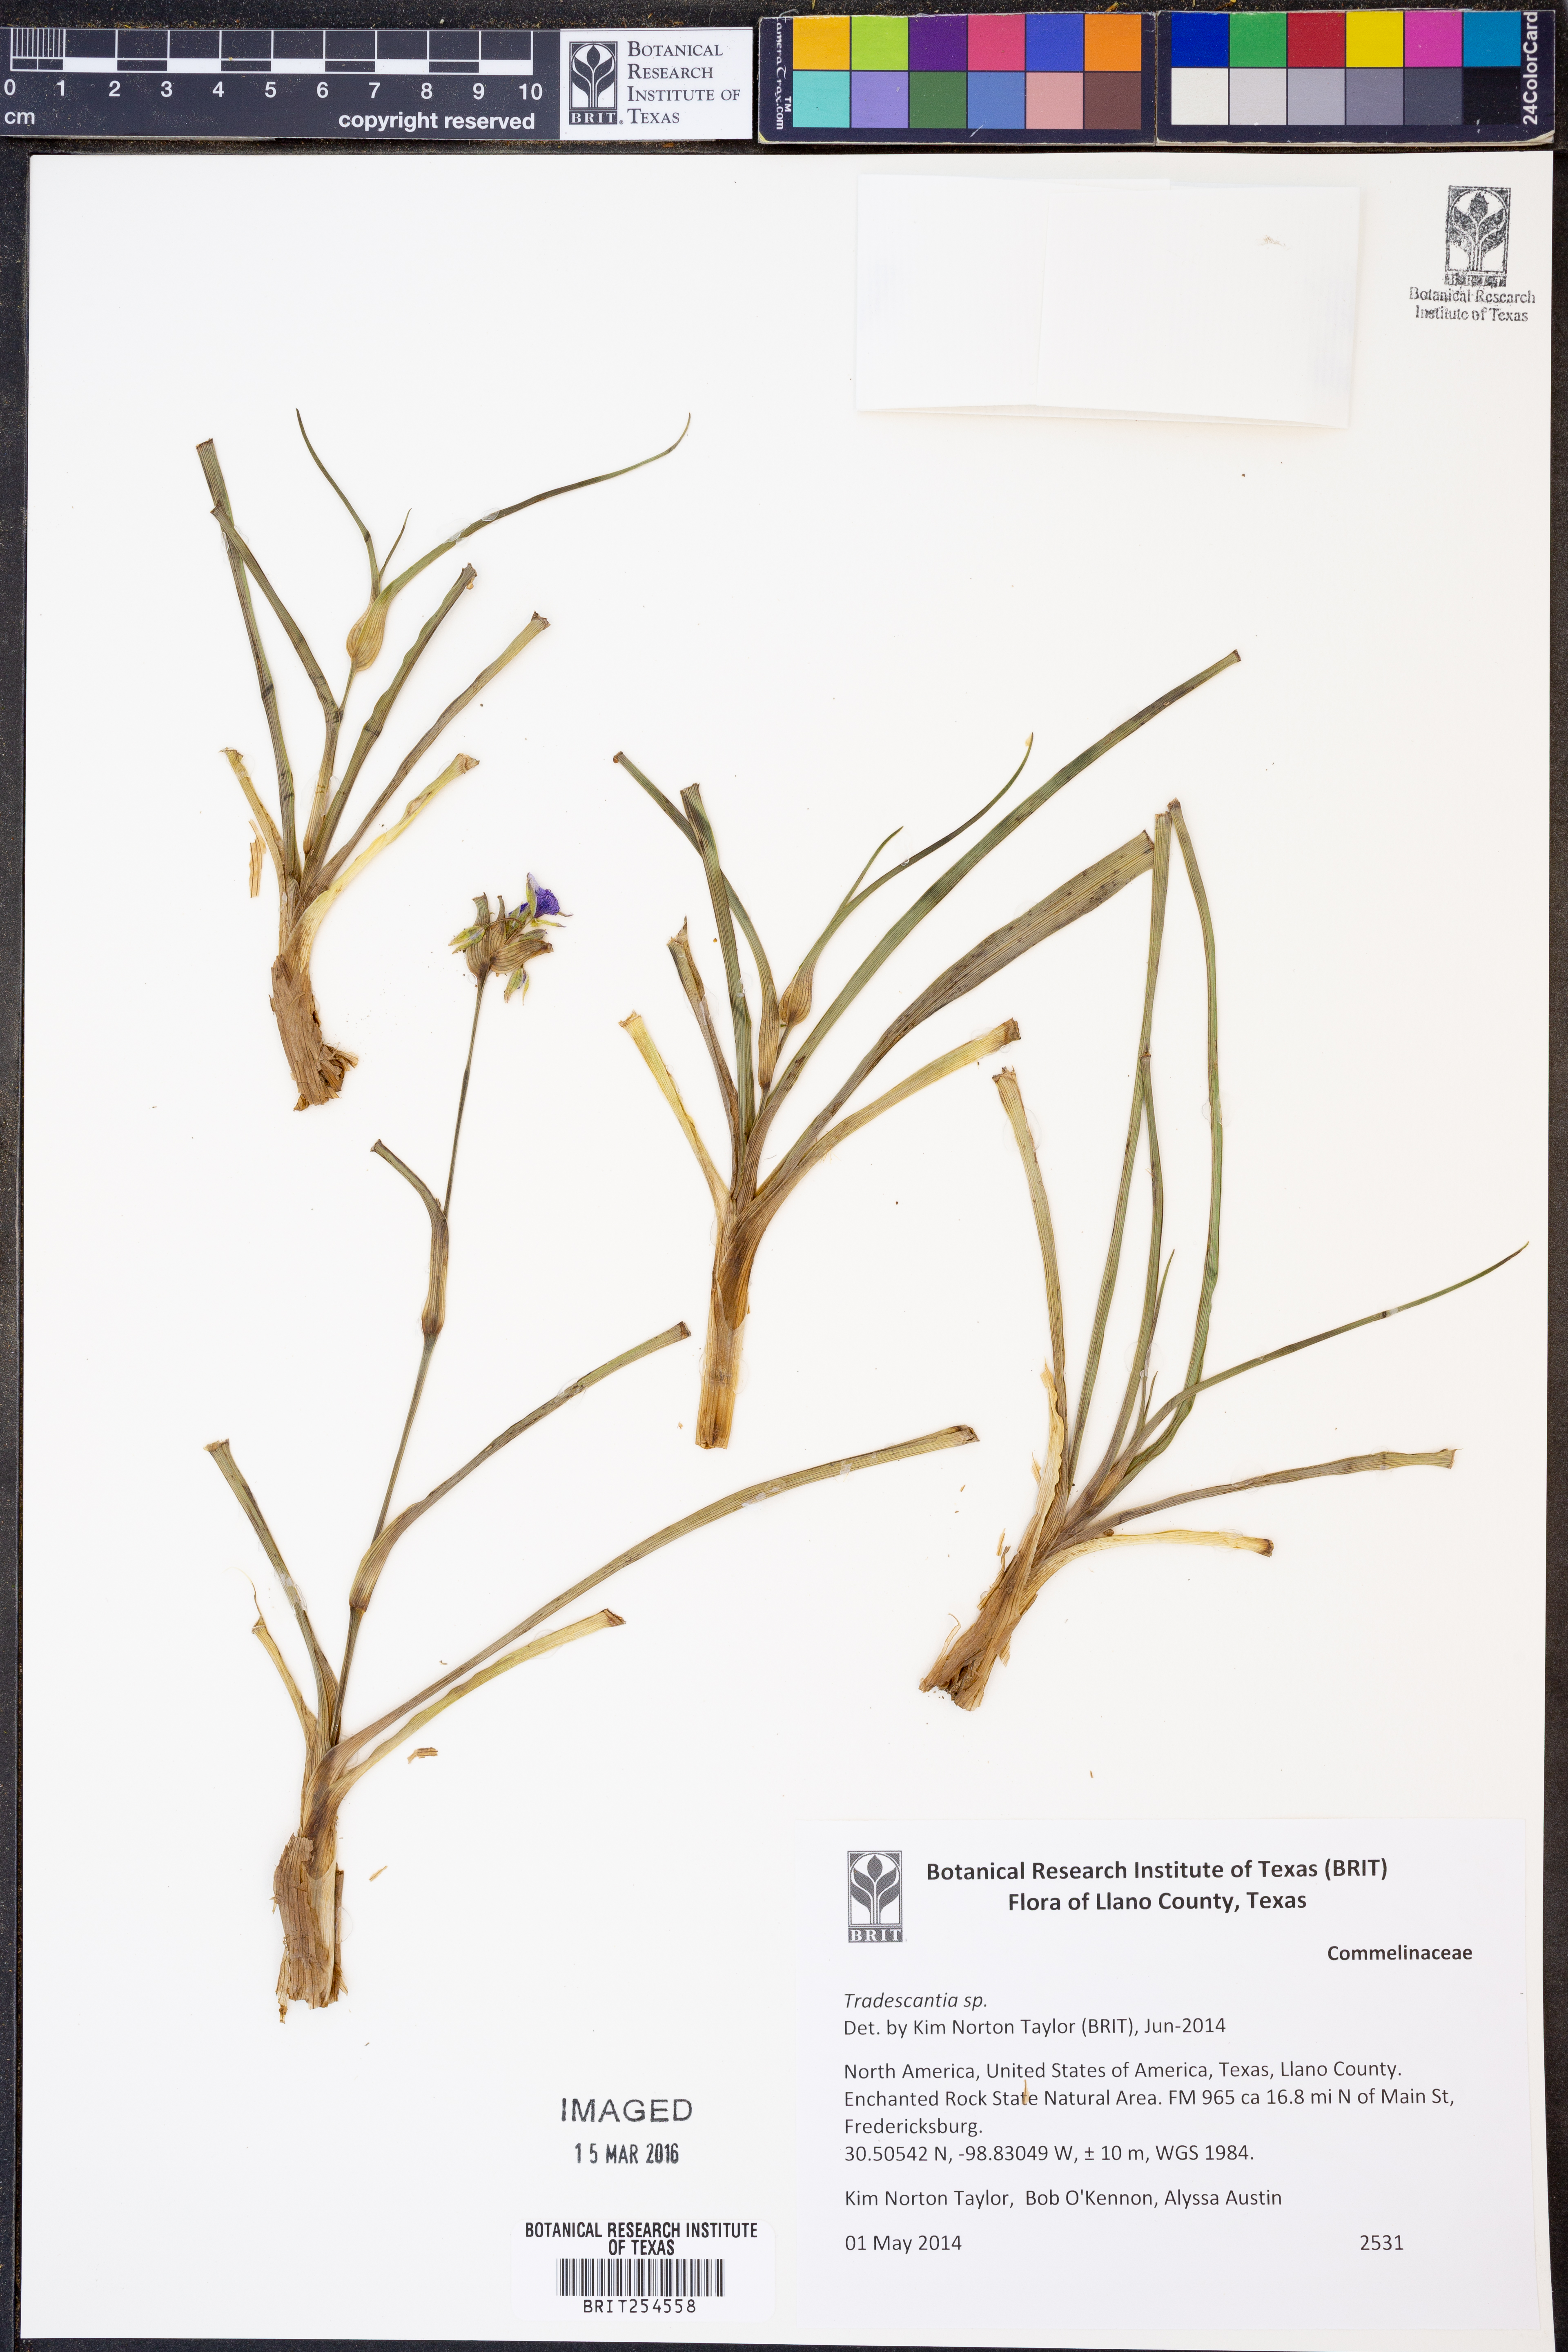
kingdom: Plantae
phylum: Tracheophyta
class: Liliopsida
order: Commelinales
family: Commelinaceae
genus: Tradescantia
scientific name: Tradescantia
